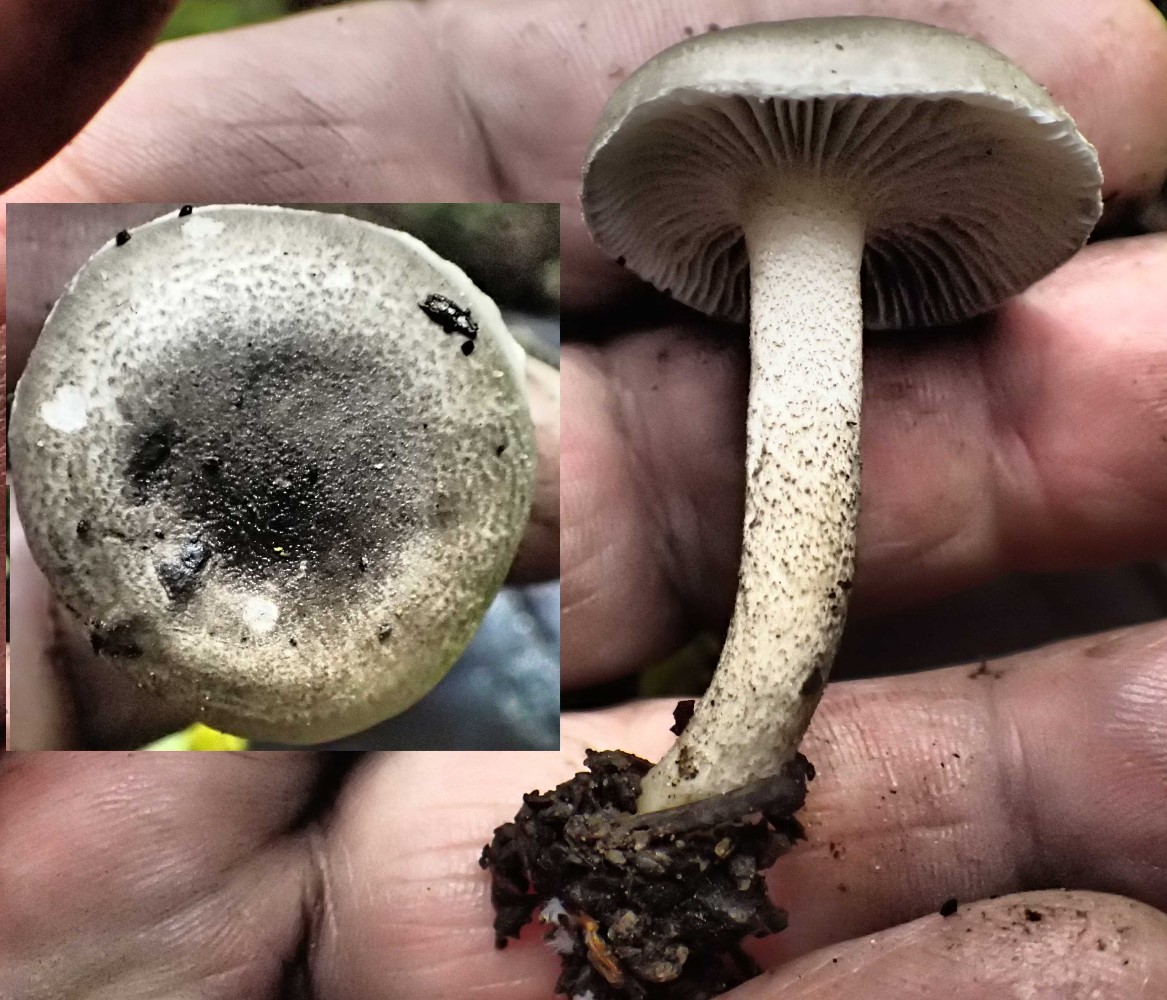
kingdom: Fungi
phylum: Basidiomycota
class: Agaricomycetes
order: Agaricales
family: Hygrophoraceae
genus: Hygrophorus
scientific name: Hygrophorus pustulatus
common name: mørkprikket sneglehat
